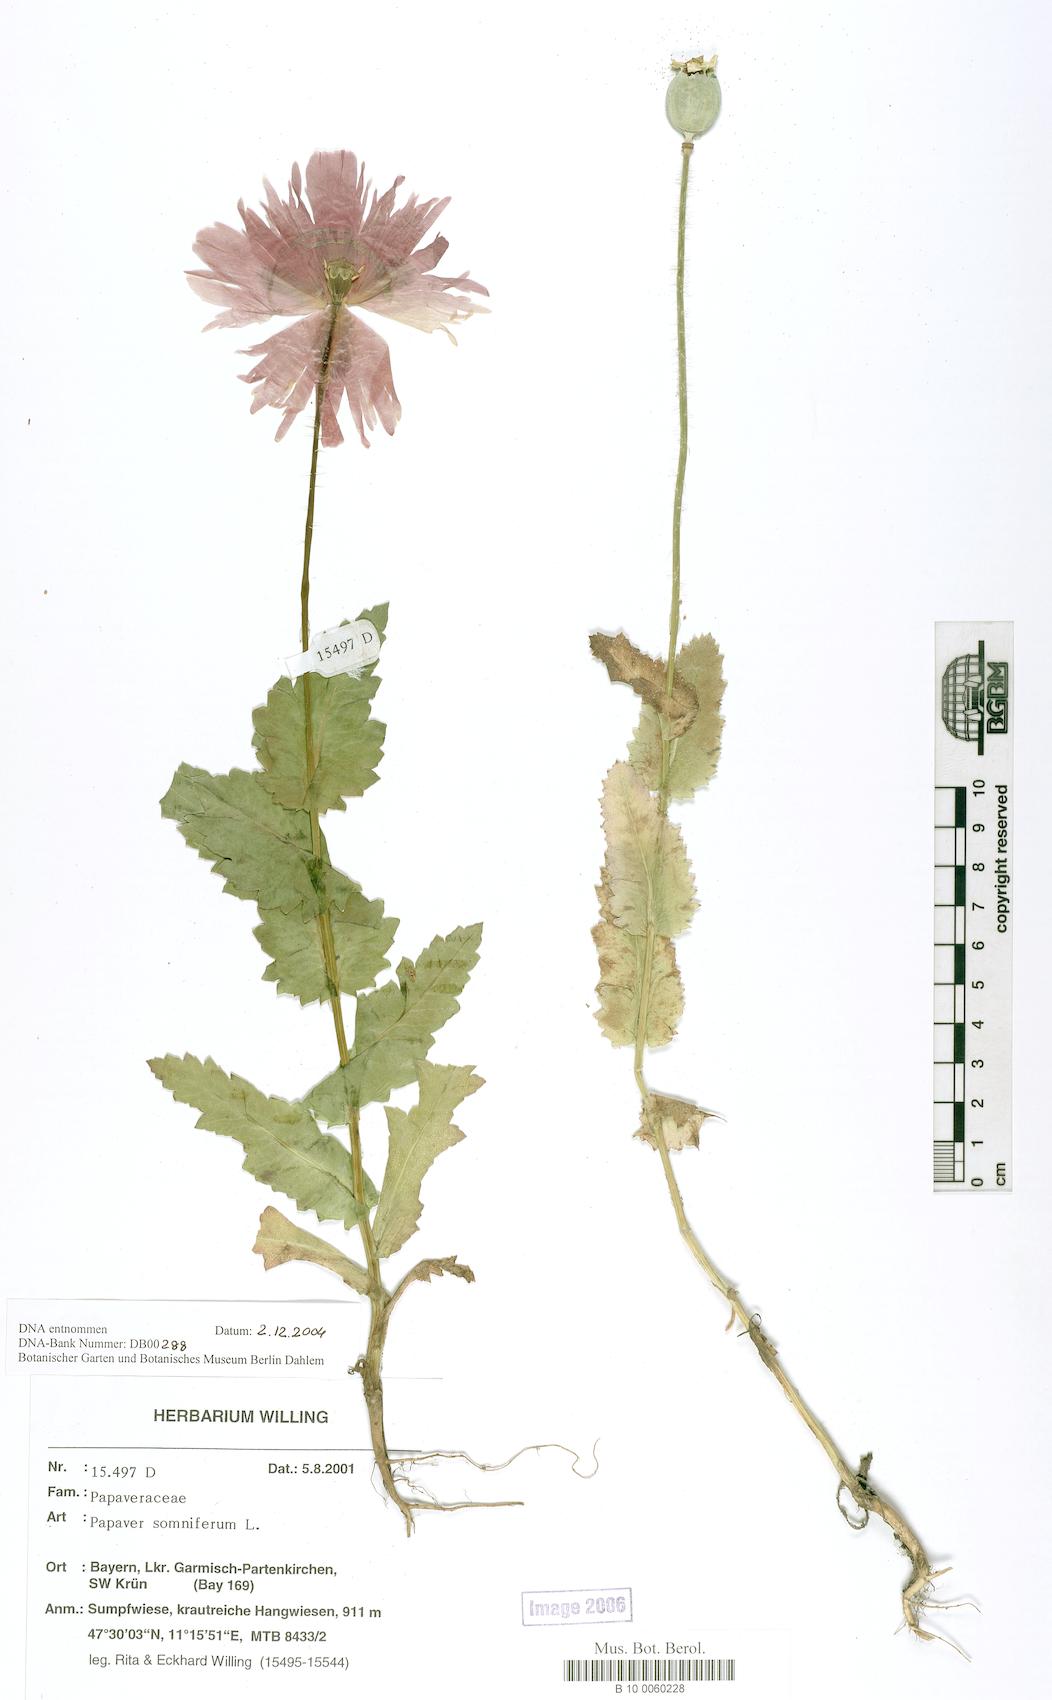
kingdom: Plantae
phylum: Tracheophyta
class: Magnoliopsida
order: Ranunculales
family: Papaveraceae
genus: Papaver
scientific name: Papaver somniferum
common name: Opium poppy
